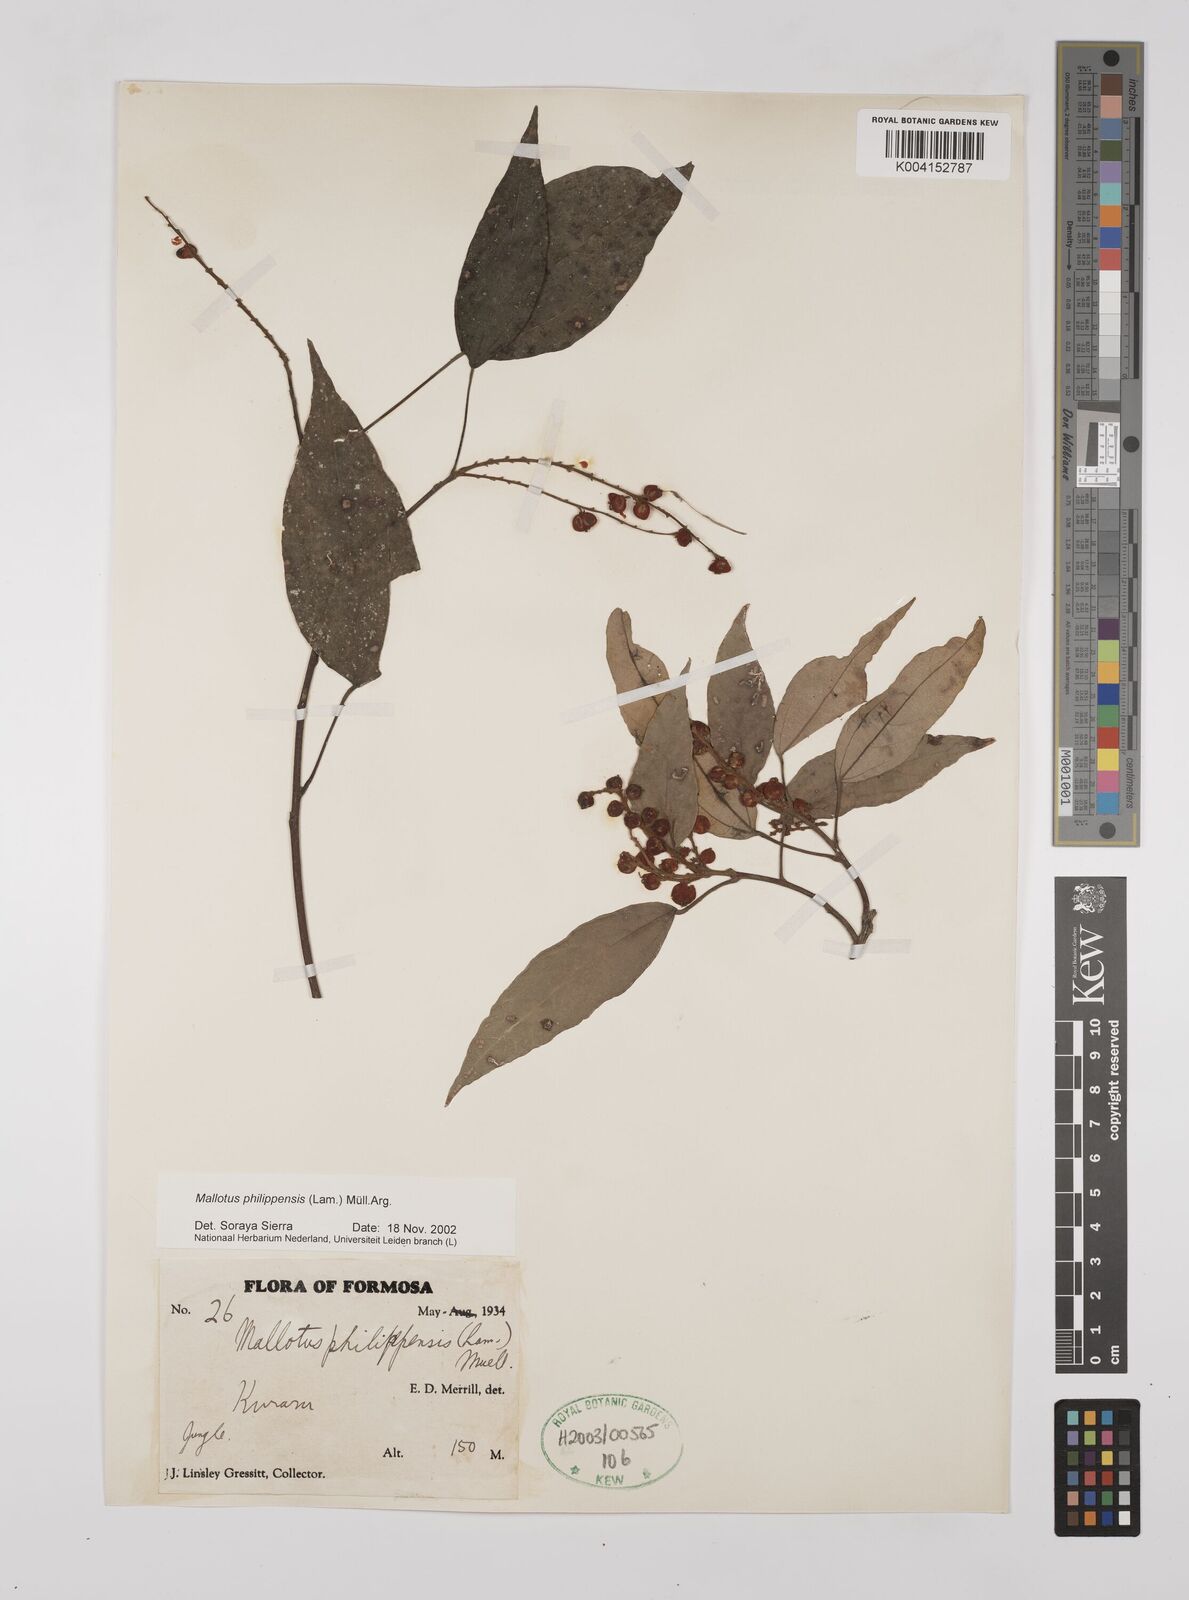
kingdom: Plantae
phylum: Tracheophyta
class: Magnoliopsida
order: Malpighiales
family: Euphorbiaceae
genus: Mallotus
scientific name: Mallotus philippensis
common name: Kamala tree
